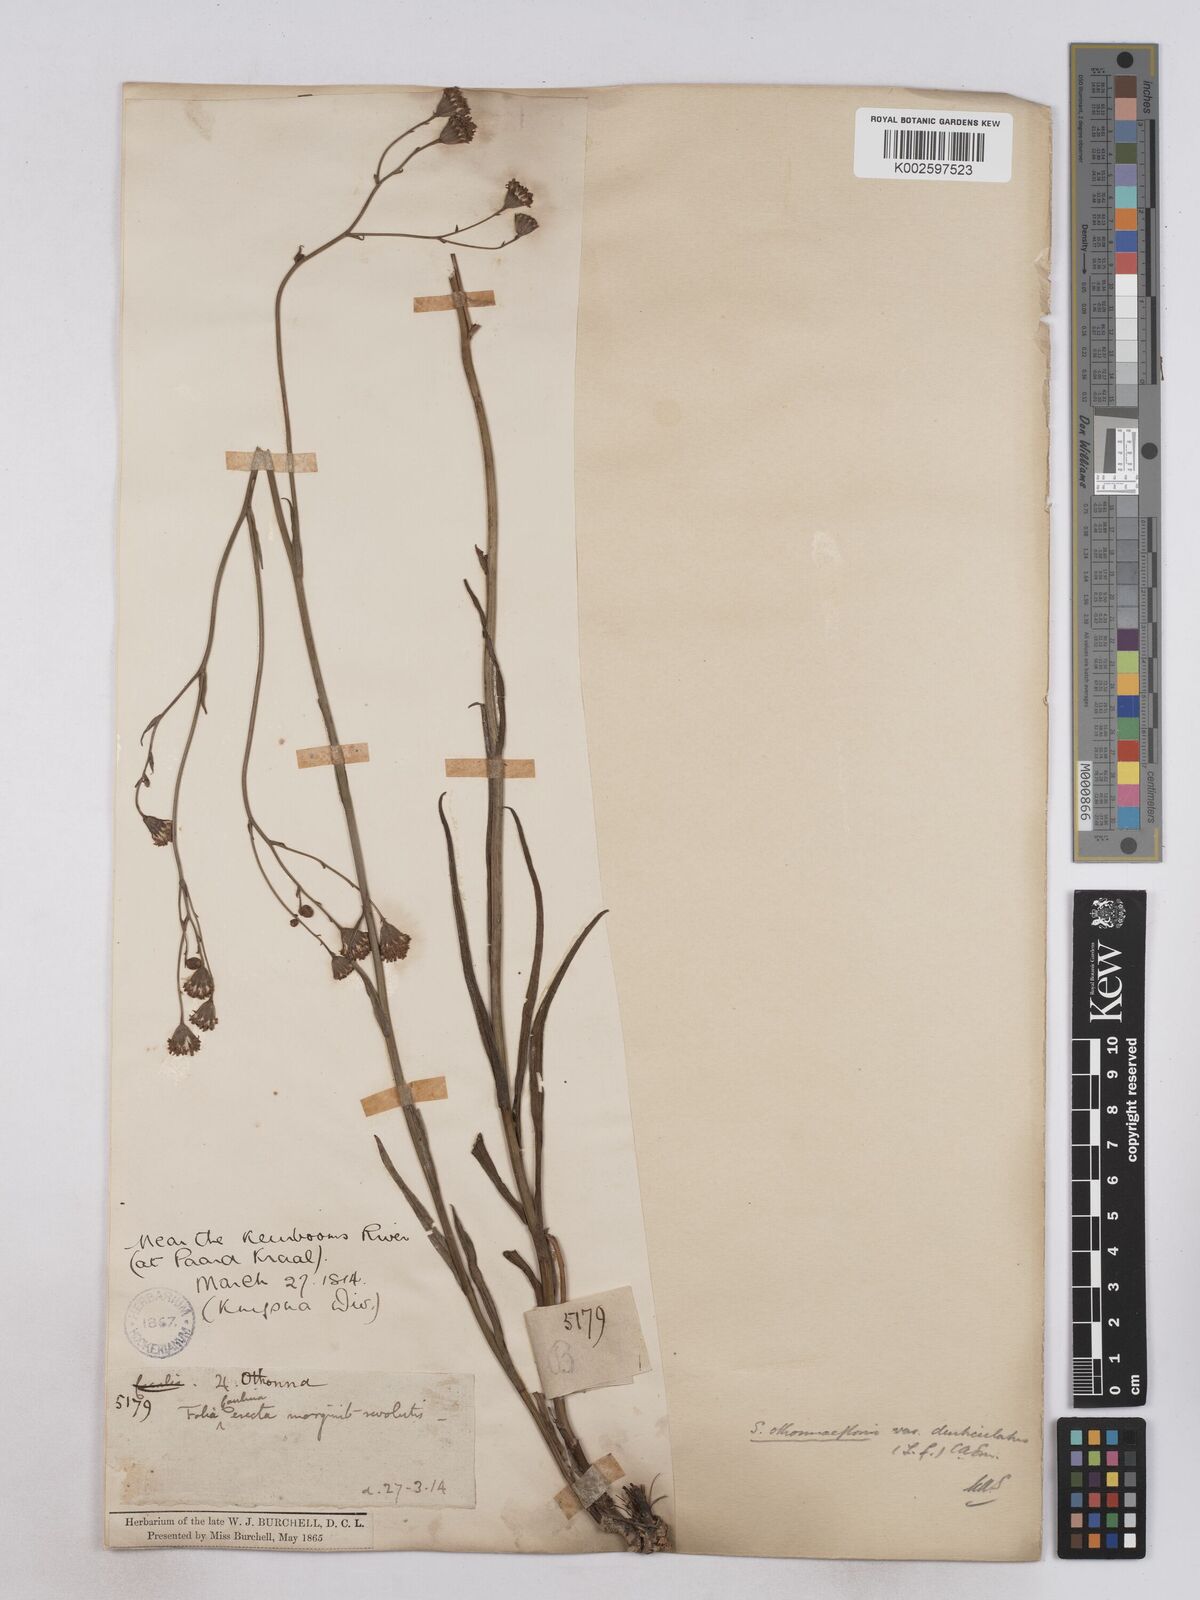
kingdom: Plantae
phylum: Tracheophyta
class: Magnoliopsida
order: Asterales
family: Asteraceae
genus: Senecio
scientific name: Senecio othonniflorus
